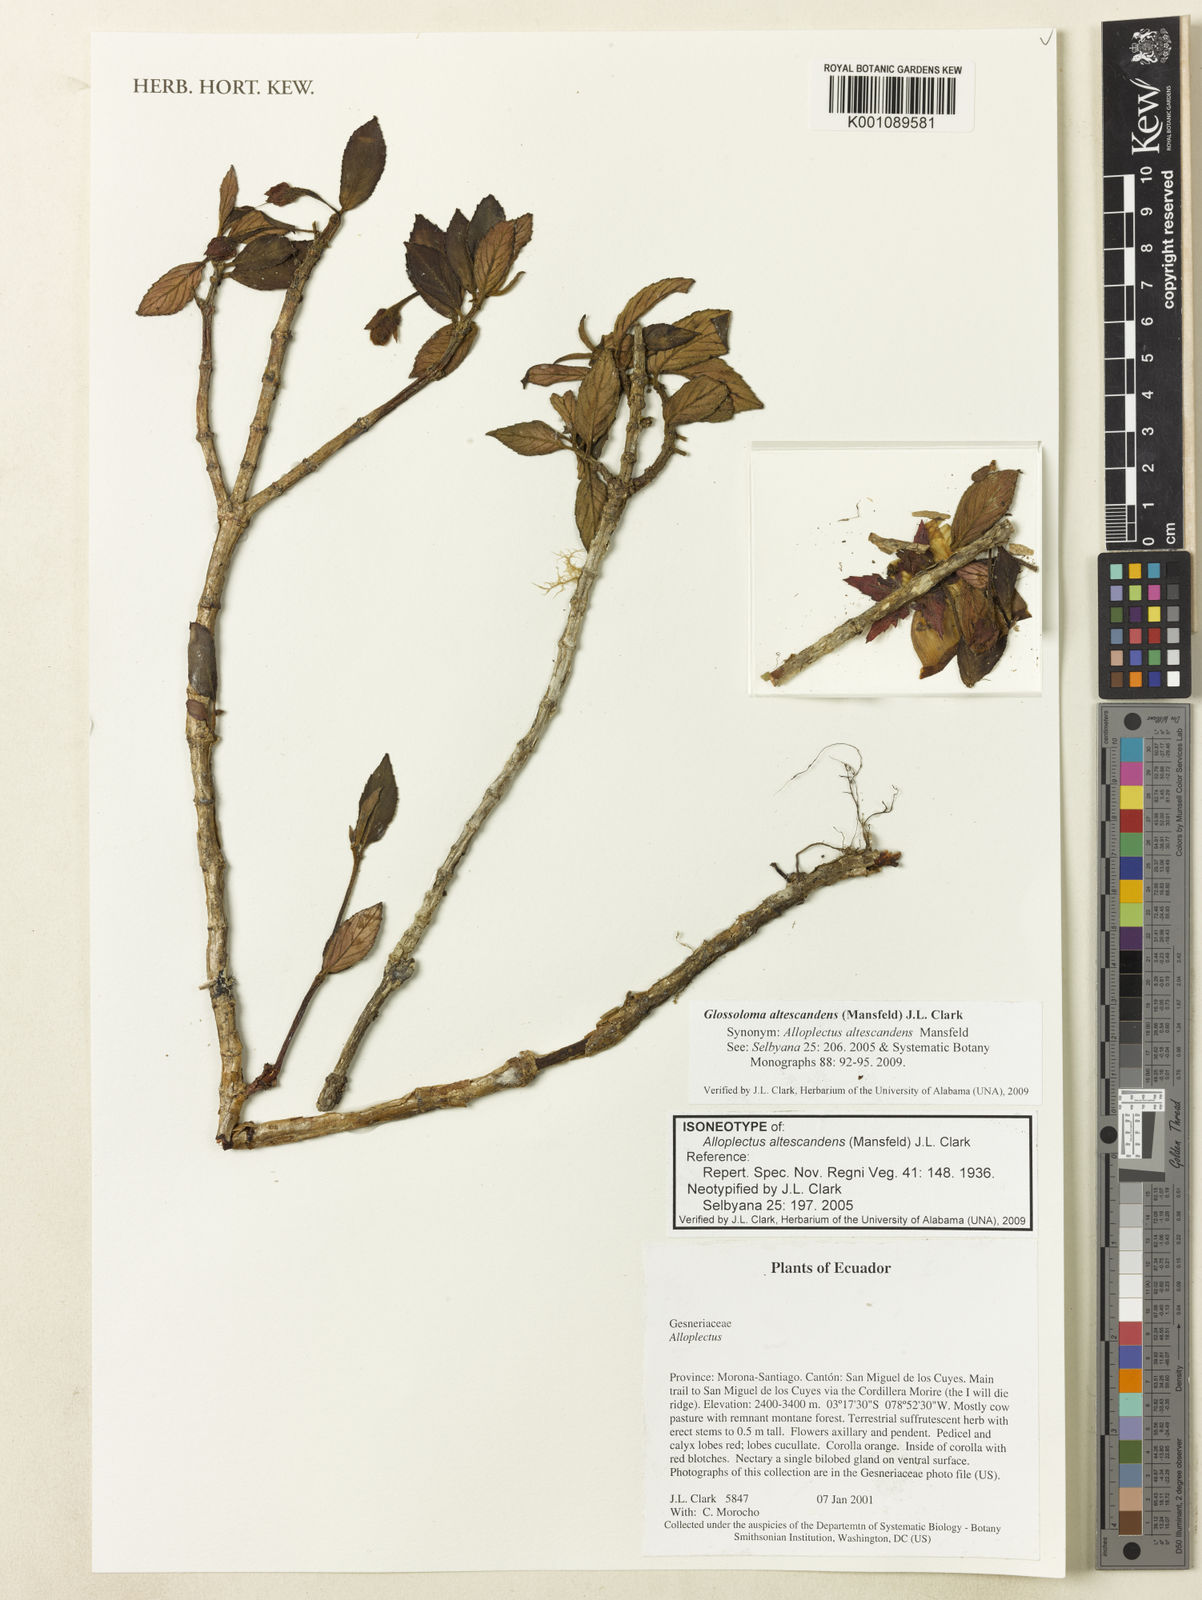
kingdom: Plantae
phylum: Tracheophyta
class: Magnoliopsida
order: Lamiales
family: Gesneriaceae
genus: Glossoloma
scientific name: Glossoloma altescandens
